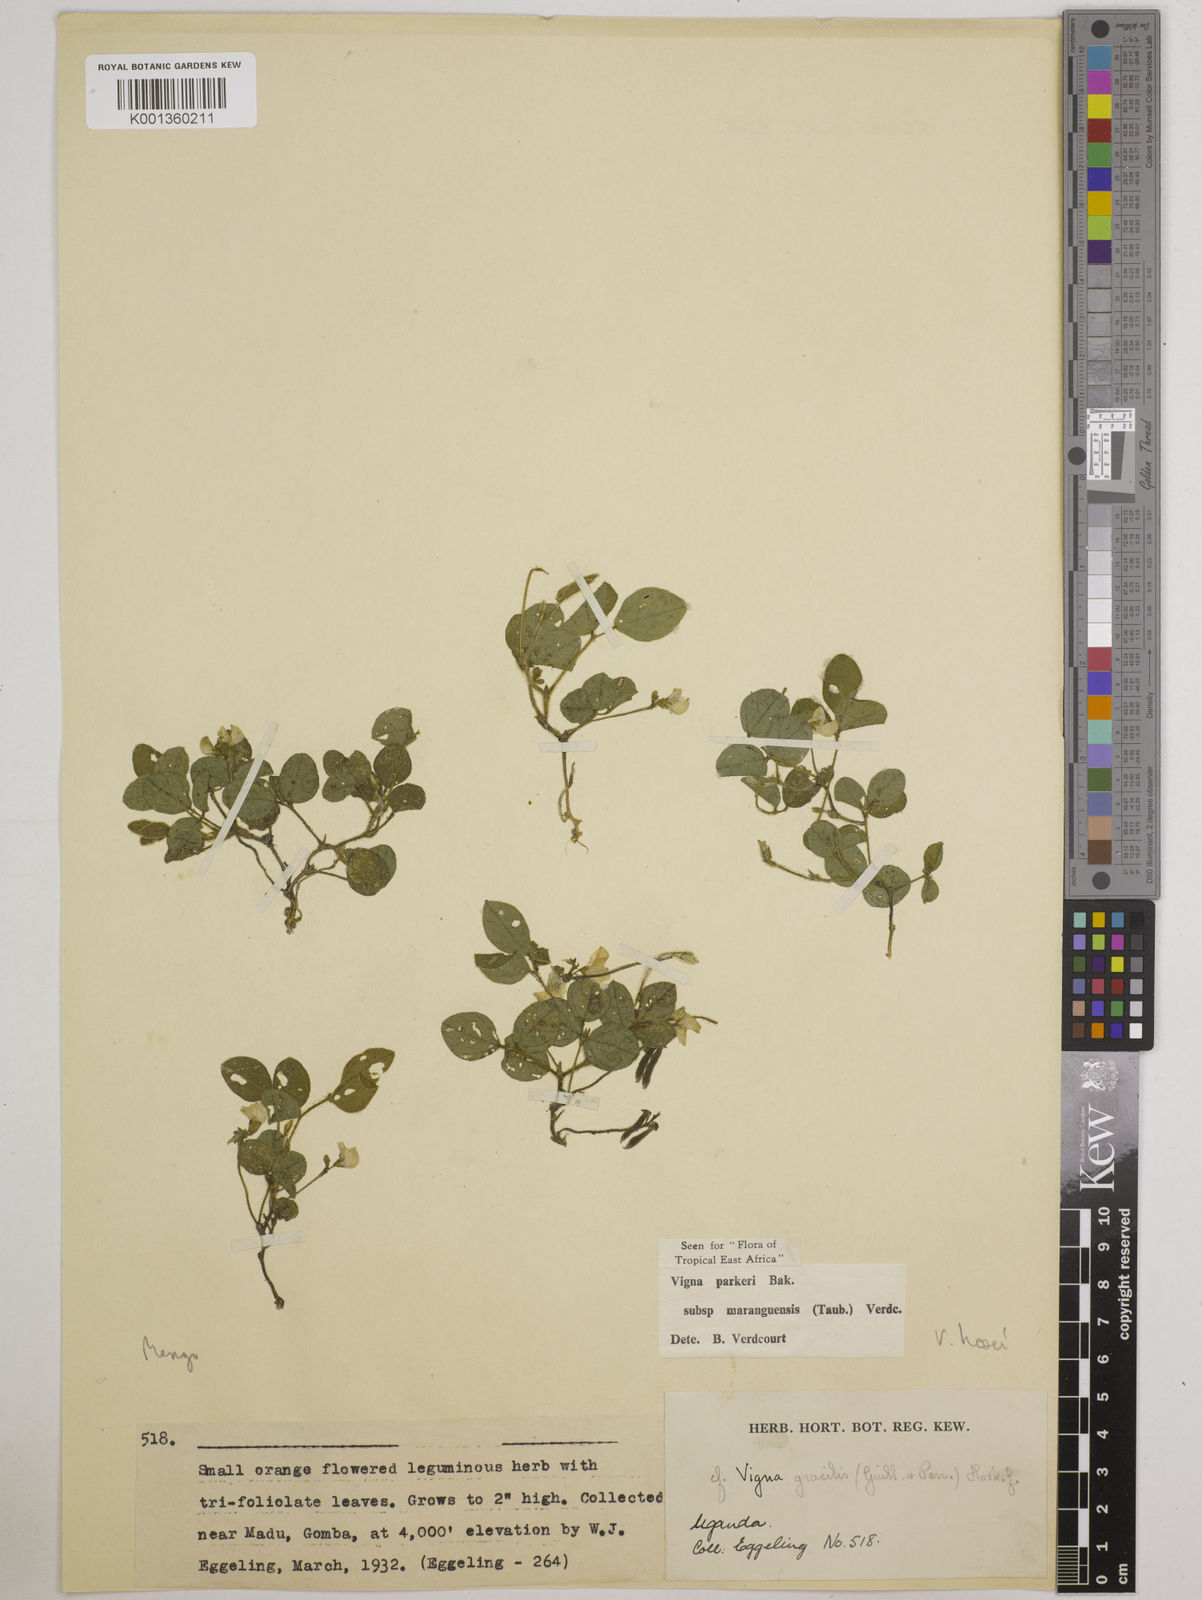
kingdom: Plantae
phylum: Tracheophyta
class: Magnoliopsida
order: Fabales
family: Fabaceae
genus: Vigna
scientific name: Vigna hosei
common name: Sarawak-bean
